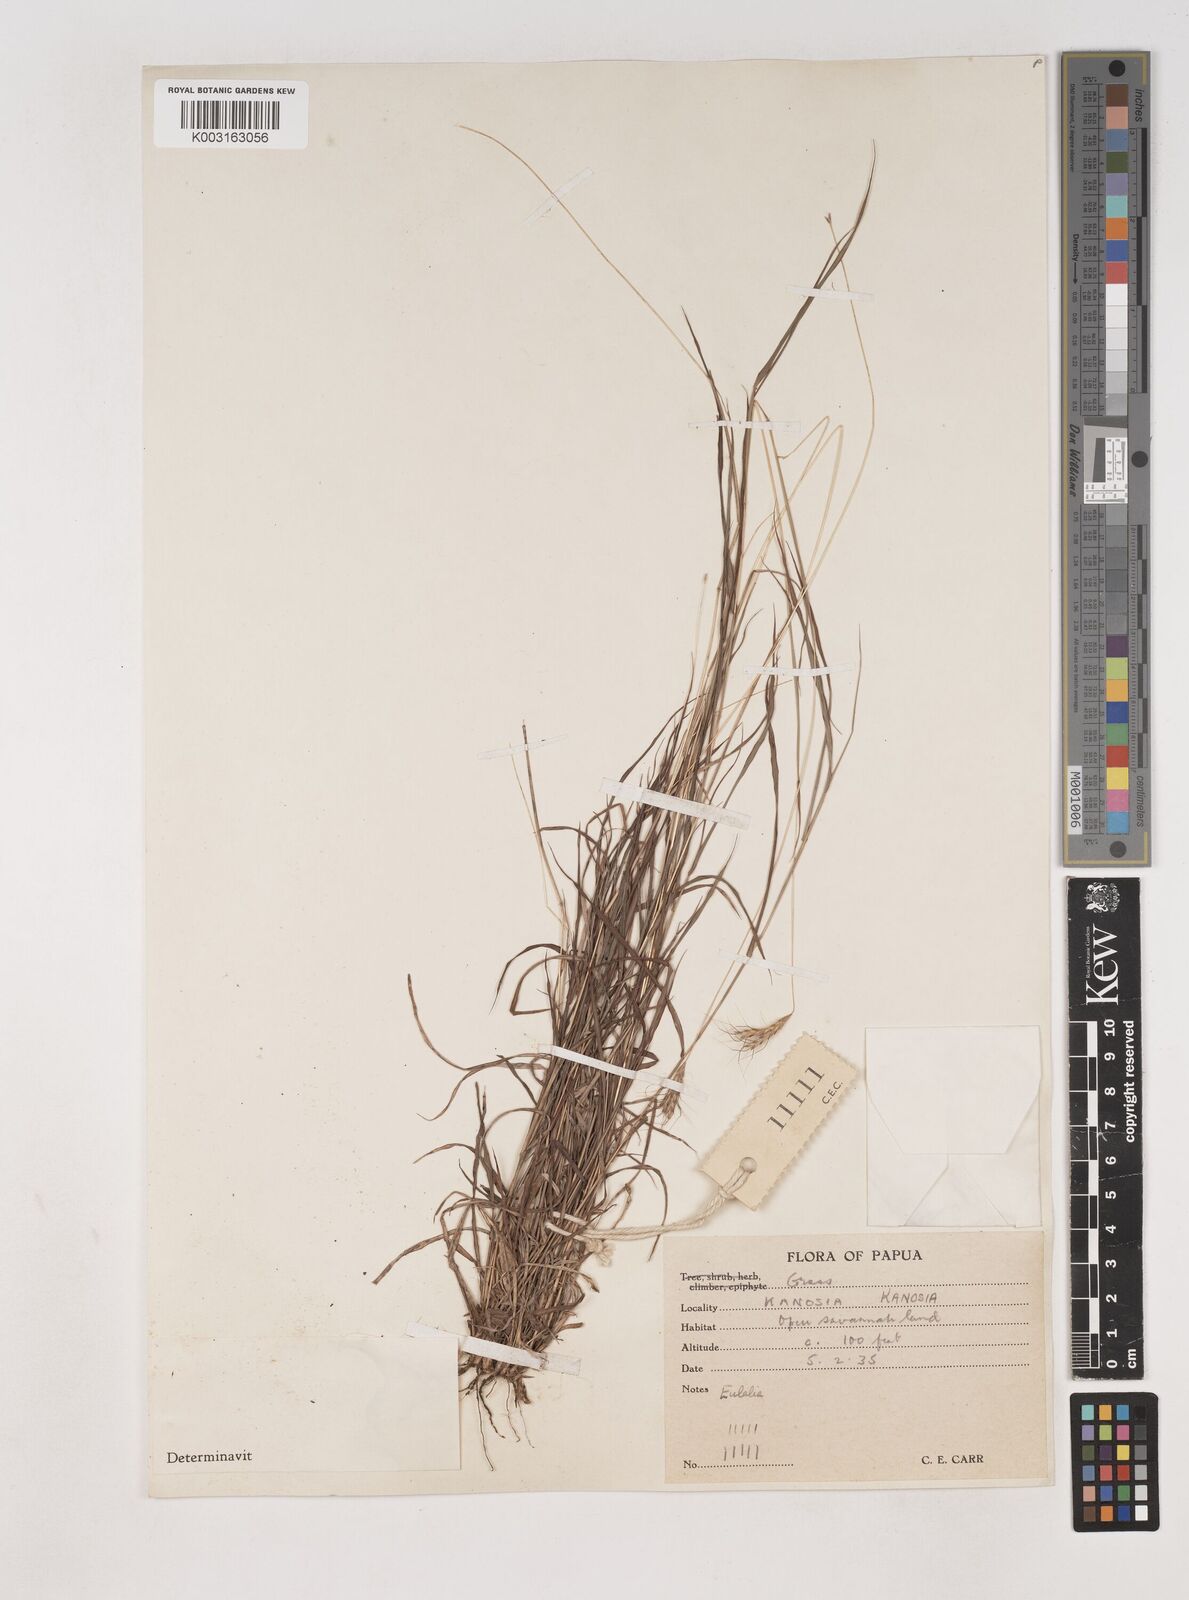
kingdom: Plantae
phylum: Tracheophyta
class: Liliopsida
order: Poales
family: Poaceae
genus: Dichanthium
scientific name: Dichanthium sericeum
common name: Silky bluestem
